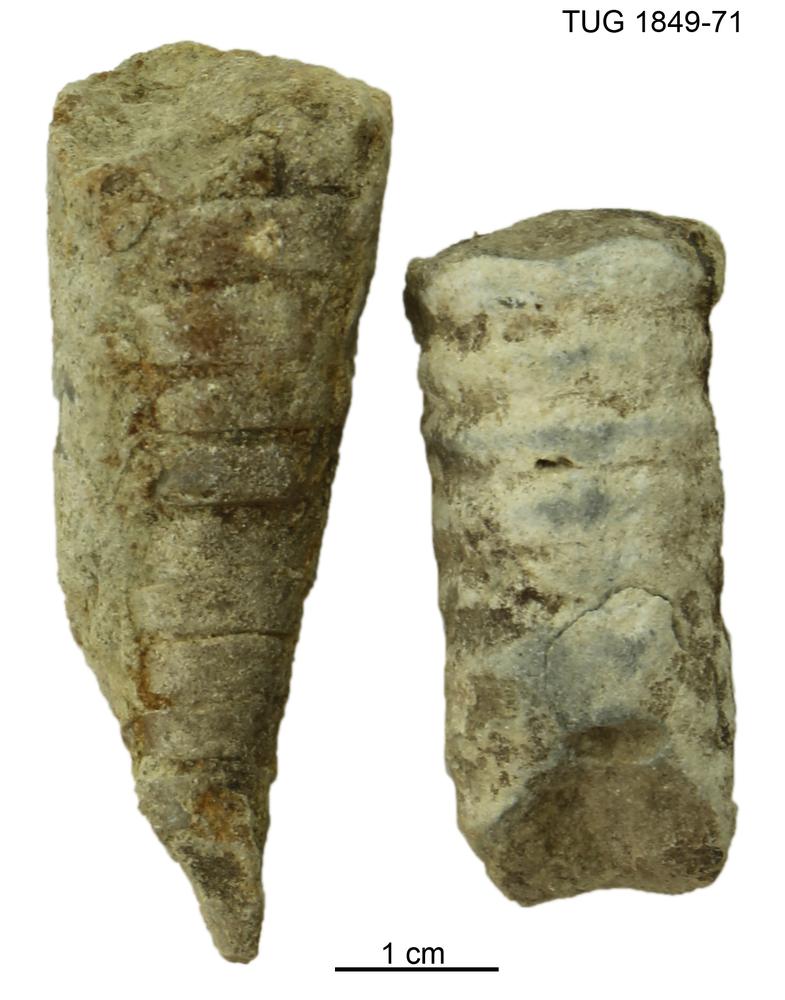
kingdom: Animalia
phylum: Mollusca
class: Cephalopoda
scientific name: Cephalopoda
